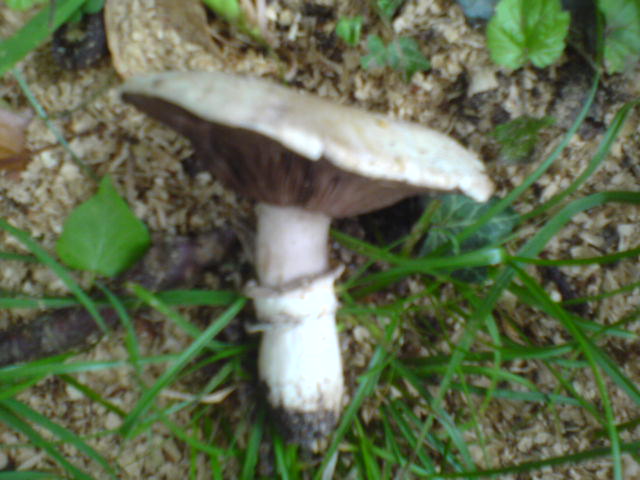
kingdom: Fungi
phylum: Basidiomycota
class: Agaricomycetes
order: Agaricales
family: Agaricaceae
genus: Agaricus
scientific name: Agaricus bitorquis
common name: vej-champignon
